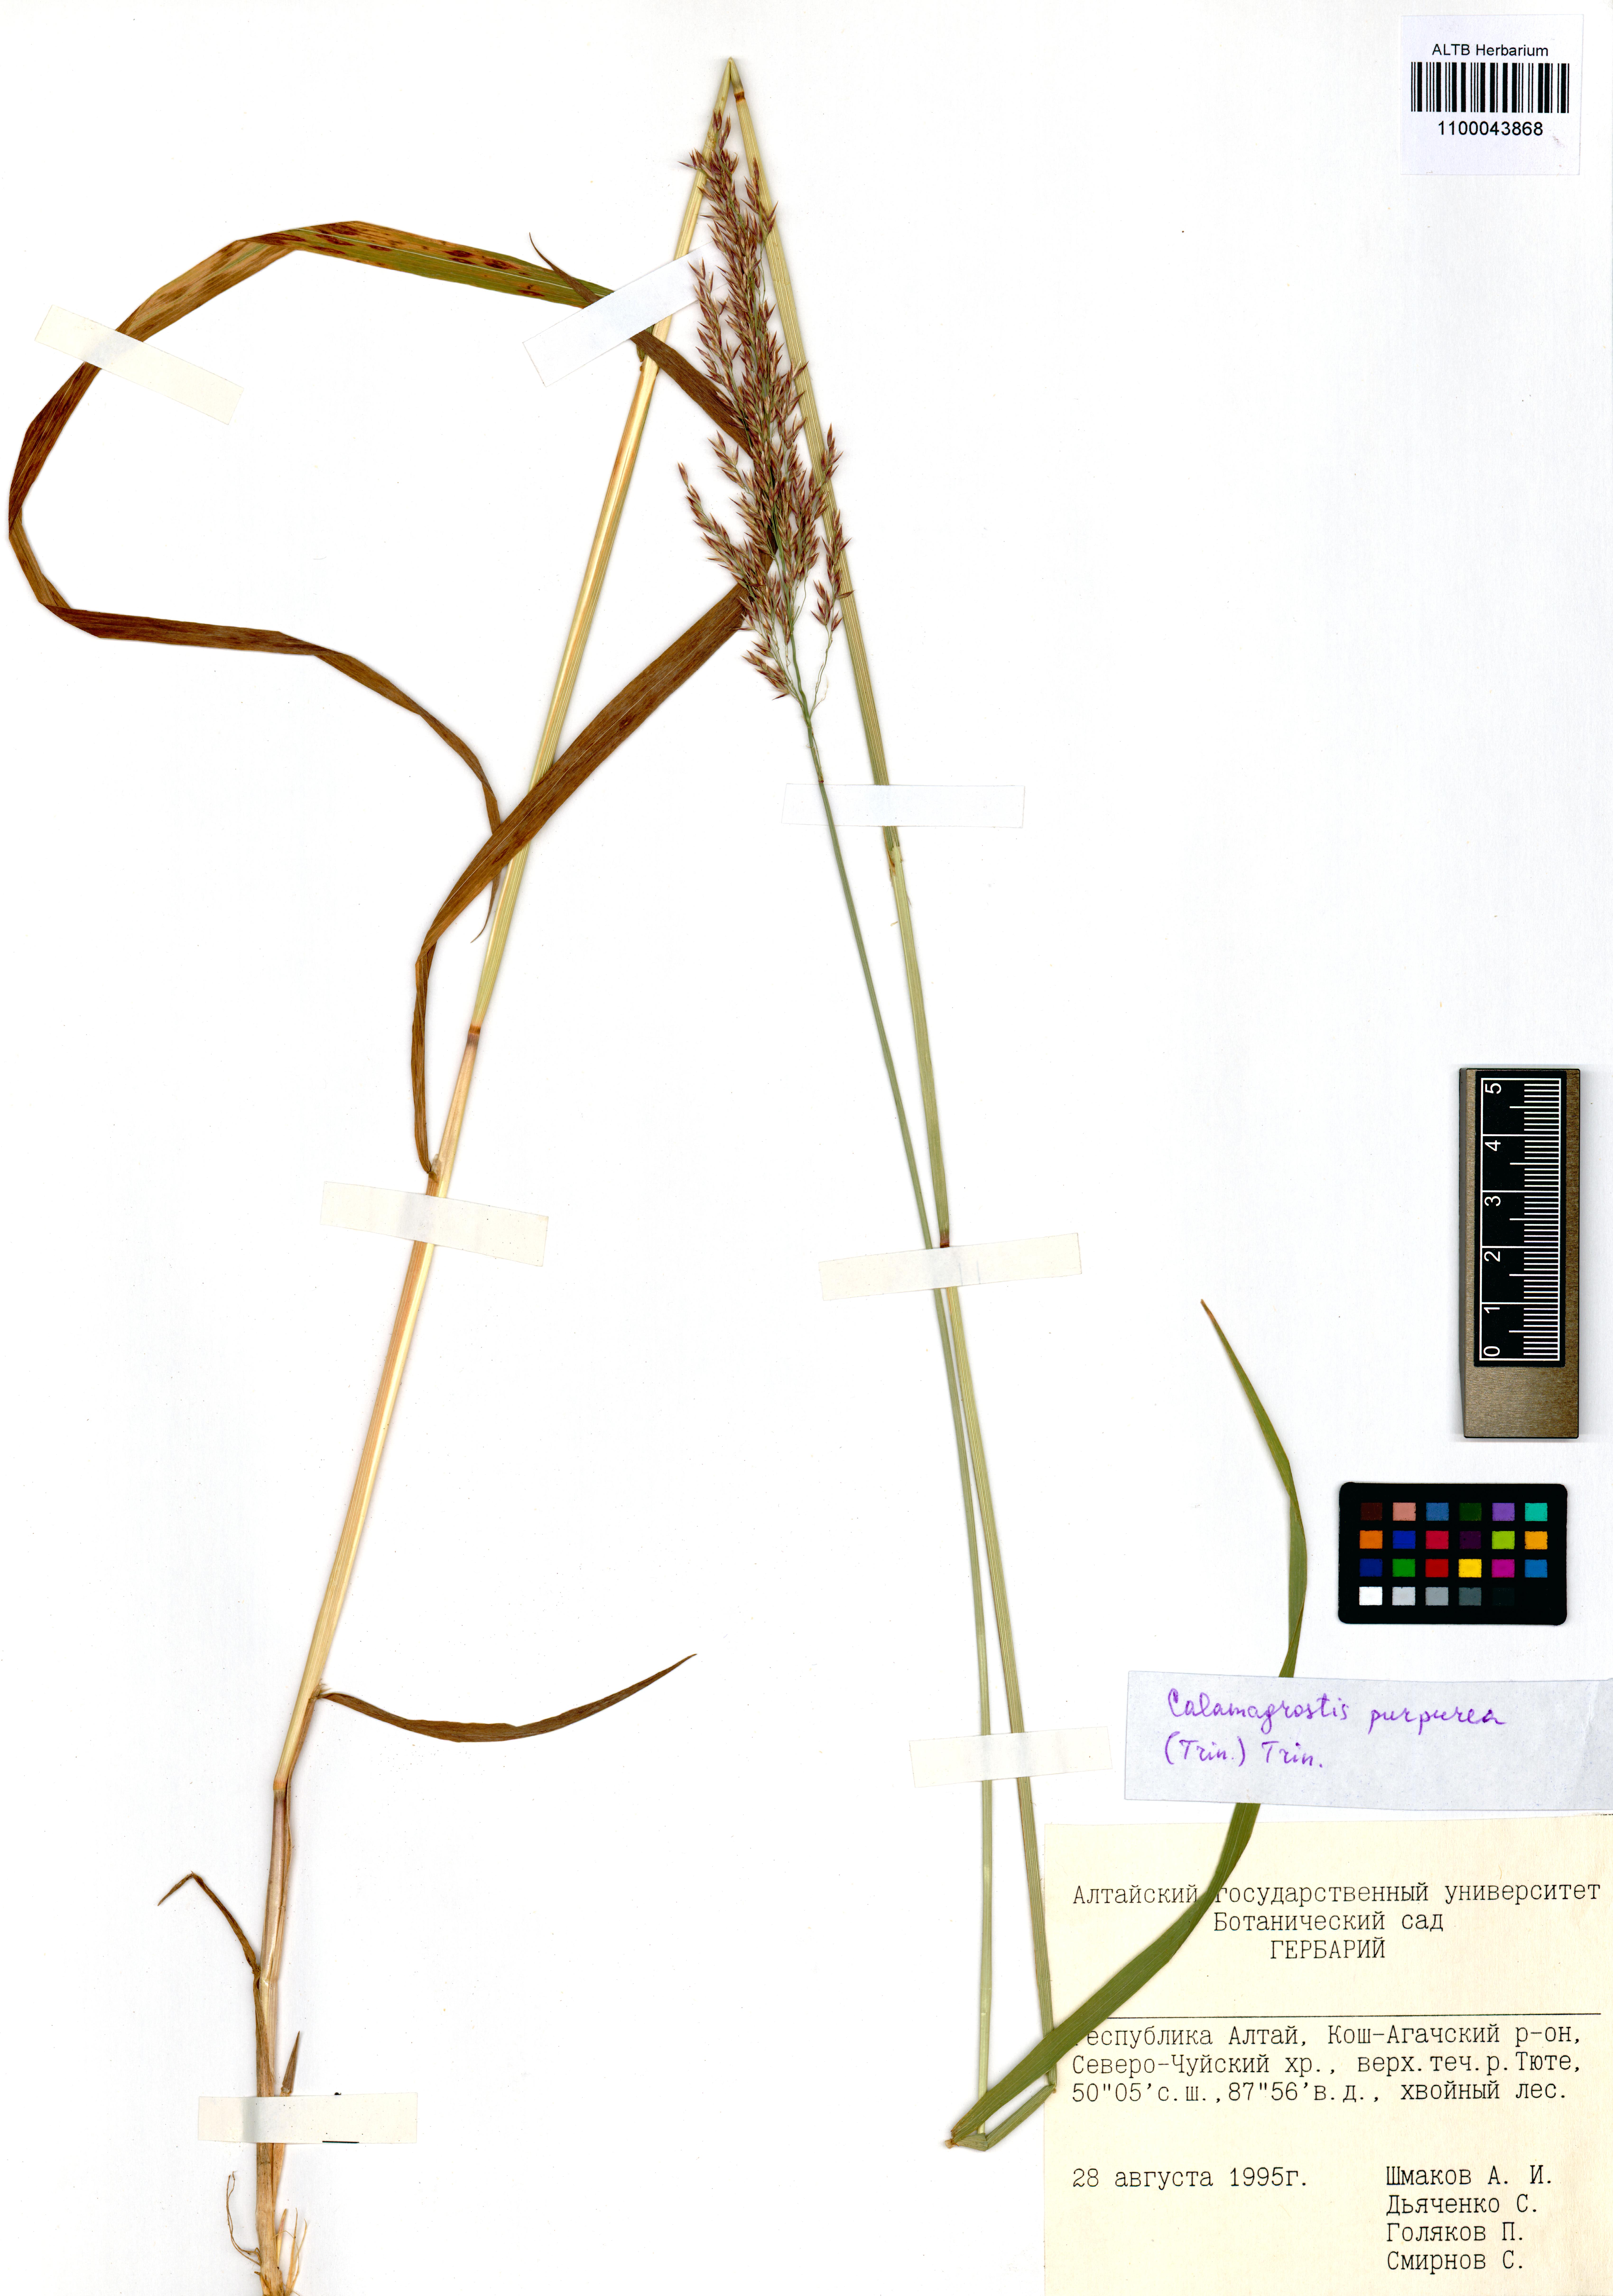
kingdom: Plantae
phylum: Tracheophyta
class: Liliopsida
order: Poales
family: Poaceae
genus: Calamagrostis
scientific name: Calamagrostis purpurea
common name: Scandinavian small-reed
